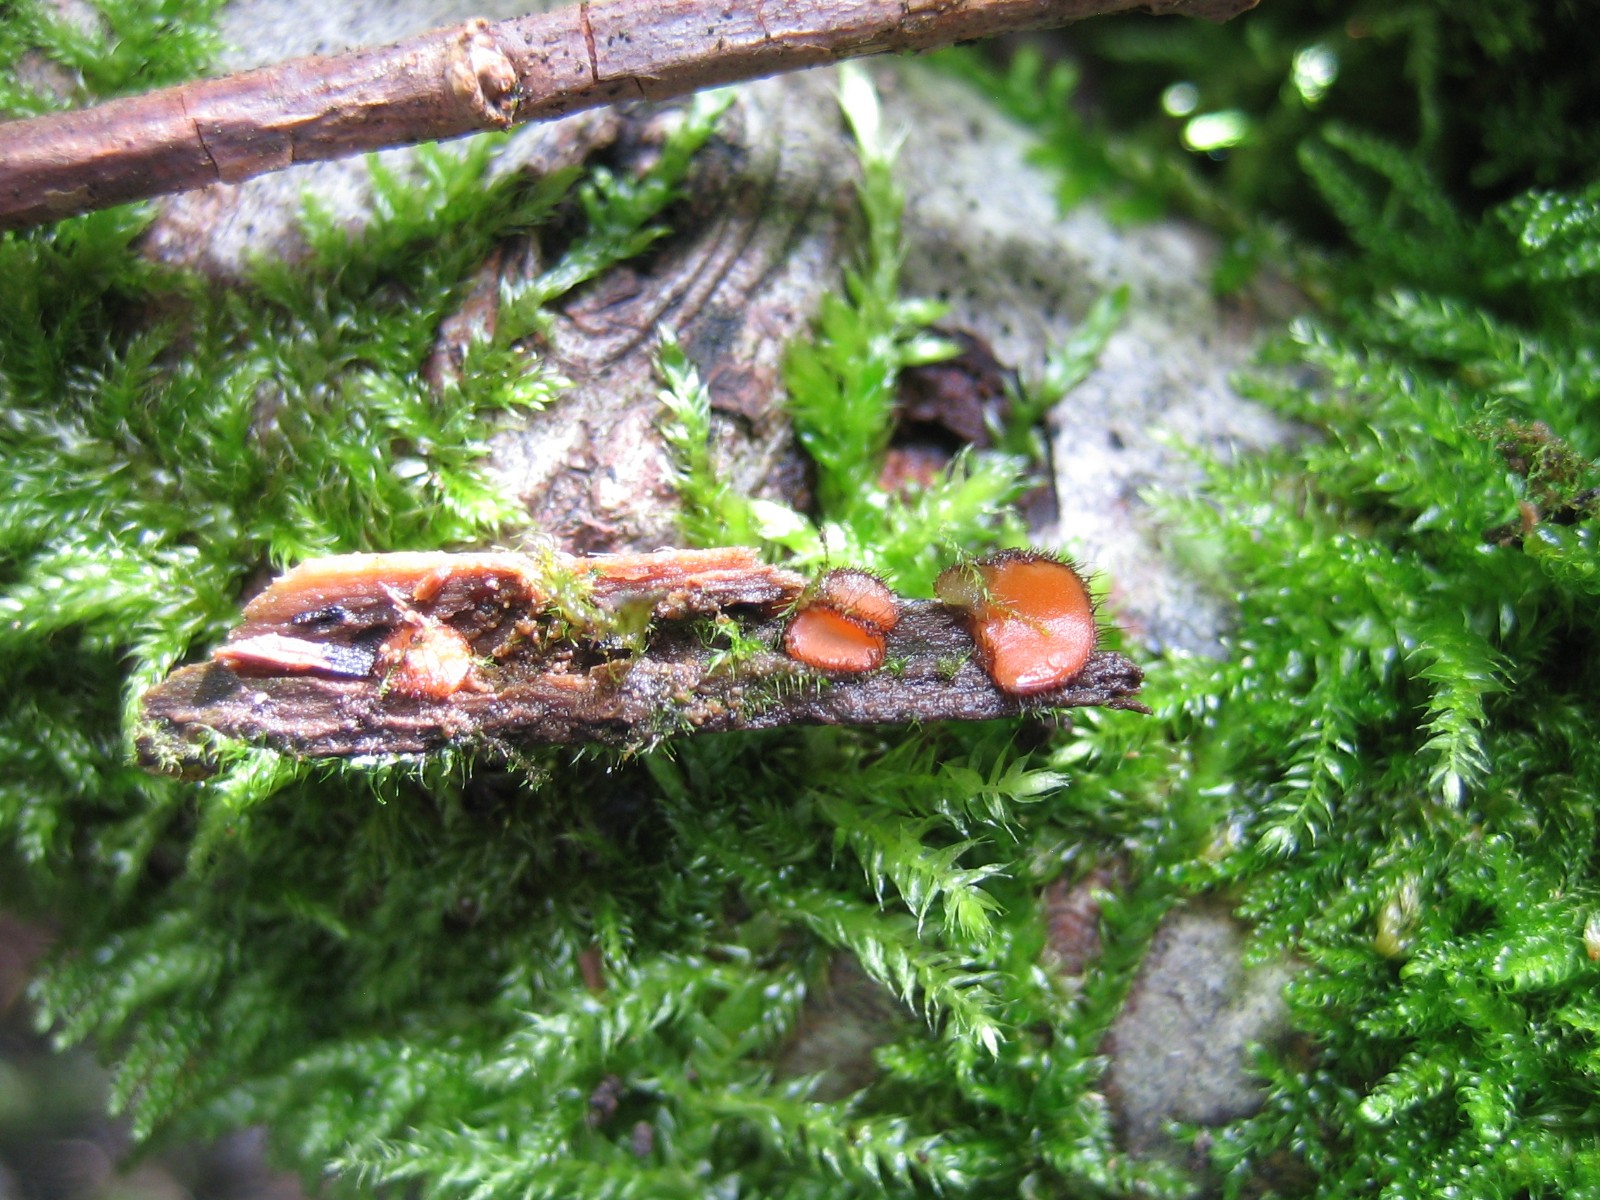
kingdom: Fungi
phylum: Ascomycota
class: Pezizomycetes
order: Pezizales
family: Pyronemataceae
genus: Scutellinia
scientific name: Scutellinia scutellata
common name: frynset skjoldbæger
